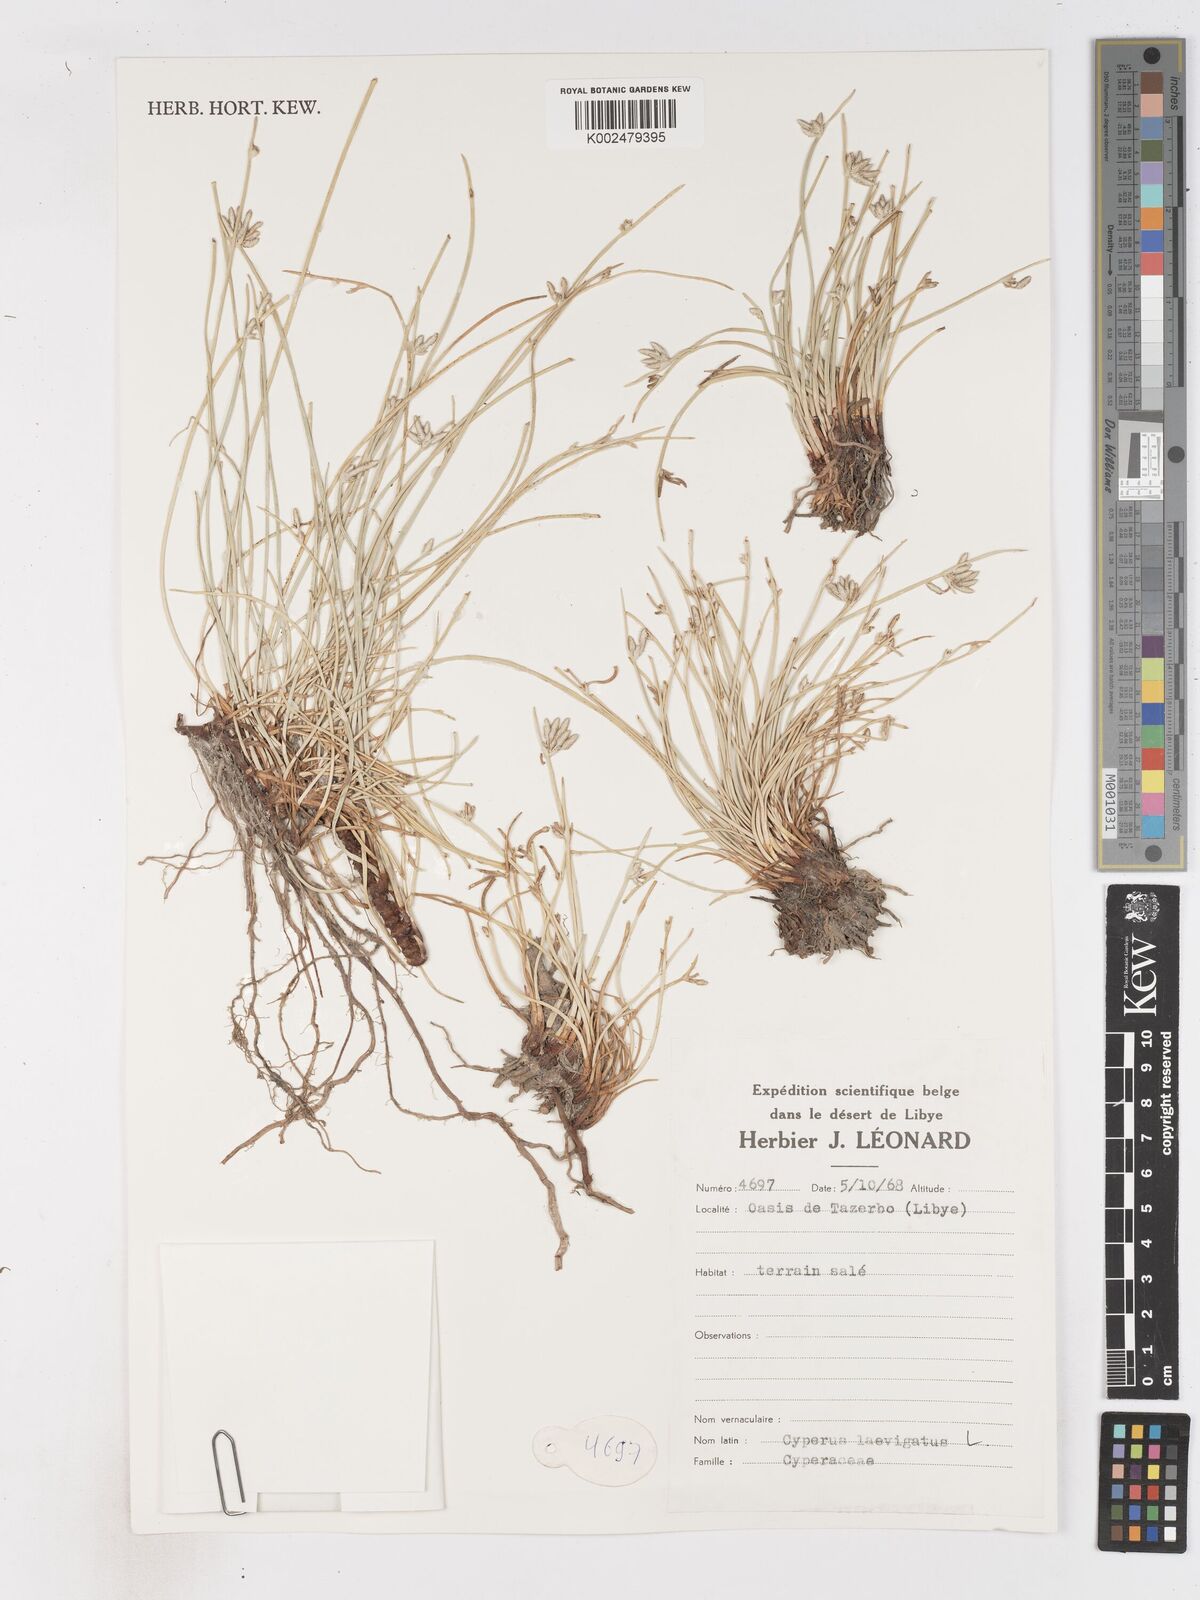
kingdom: Plantae
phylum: Tracheophyta
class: Liliopsida
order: Poales
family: Cyperaceae
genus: Cyperus
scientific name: Cyperus laevigatus
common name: Smooth flat sedge
